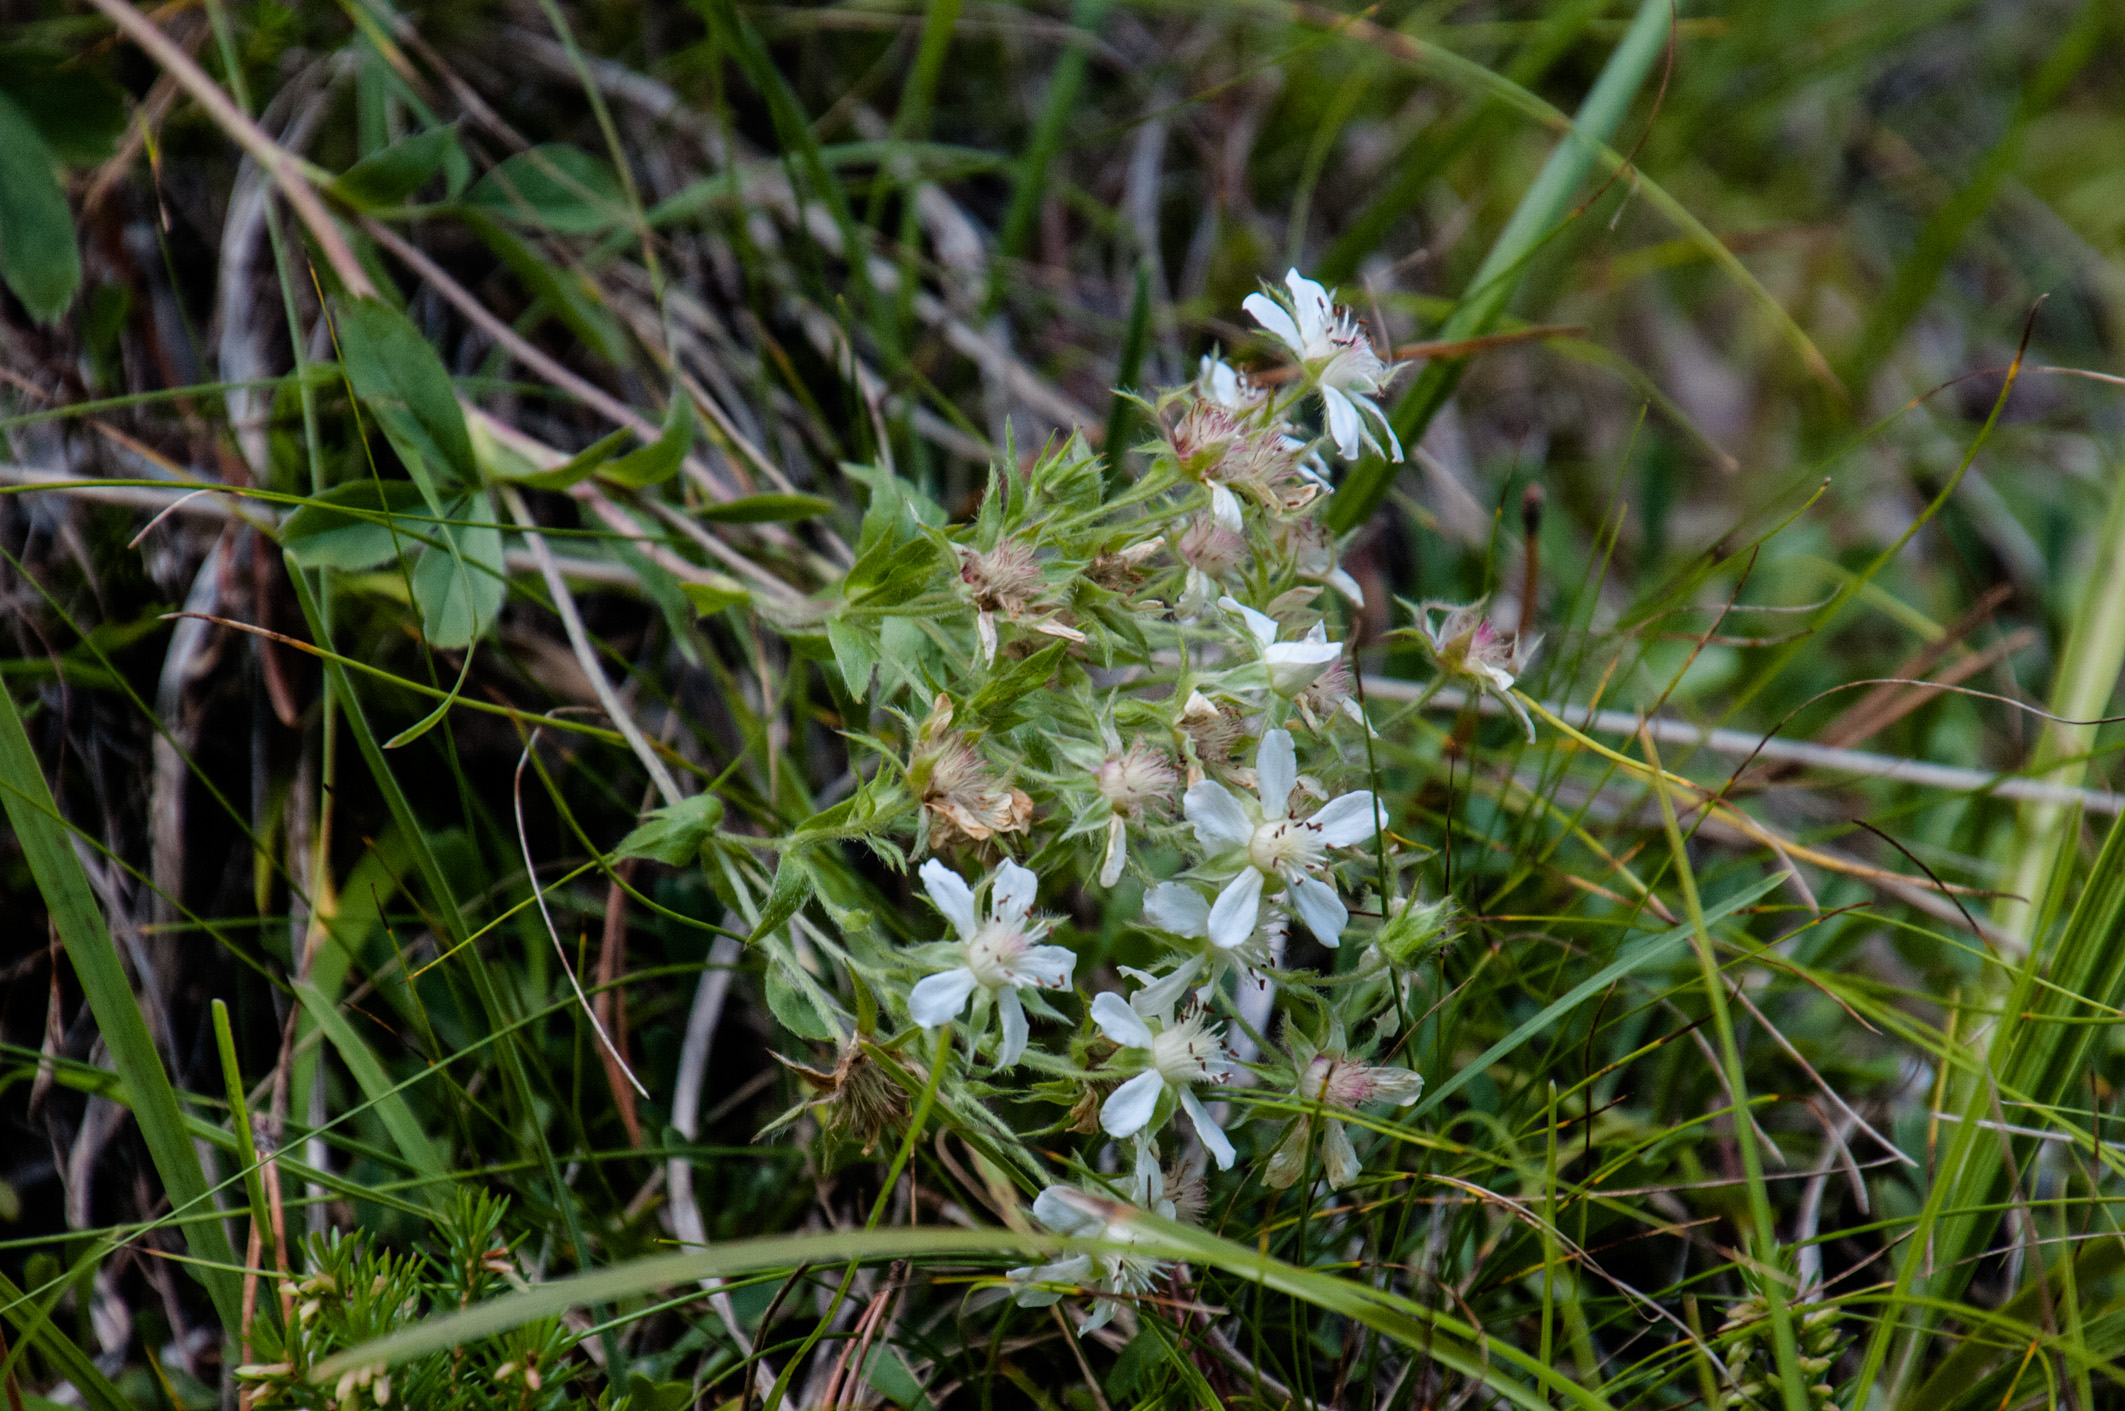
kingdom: Plantae
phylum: Tracheophyta
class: Magnoliopsida
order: Rosales
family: Rosaceae
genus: Potentilla
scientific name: Potentilla caulescens
